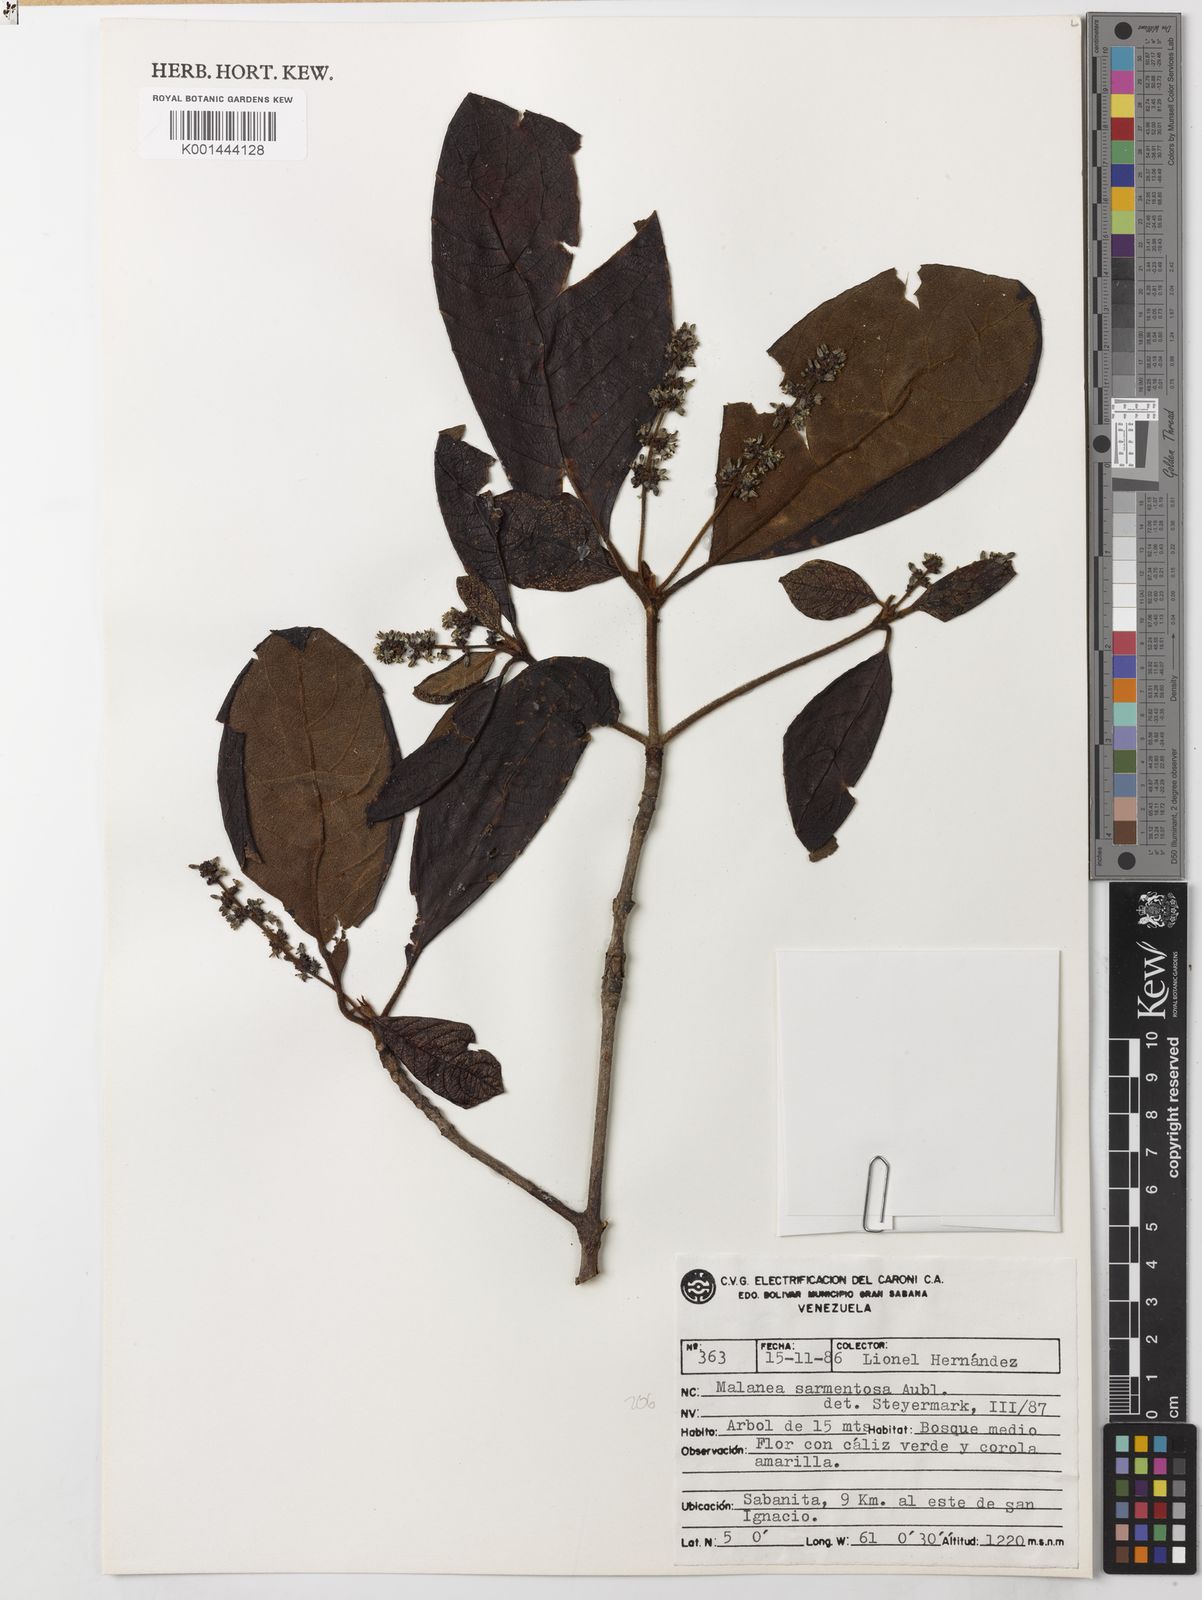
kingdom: Plantae
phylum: Tracheophyta
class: Magnoliopsida
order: Gentianales
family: Rubiaceae
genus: Malanea
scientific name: Malanea sarmentosa
